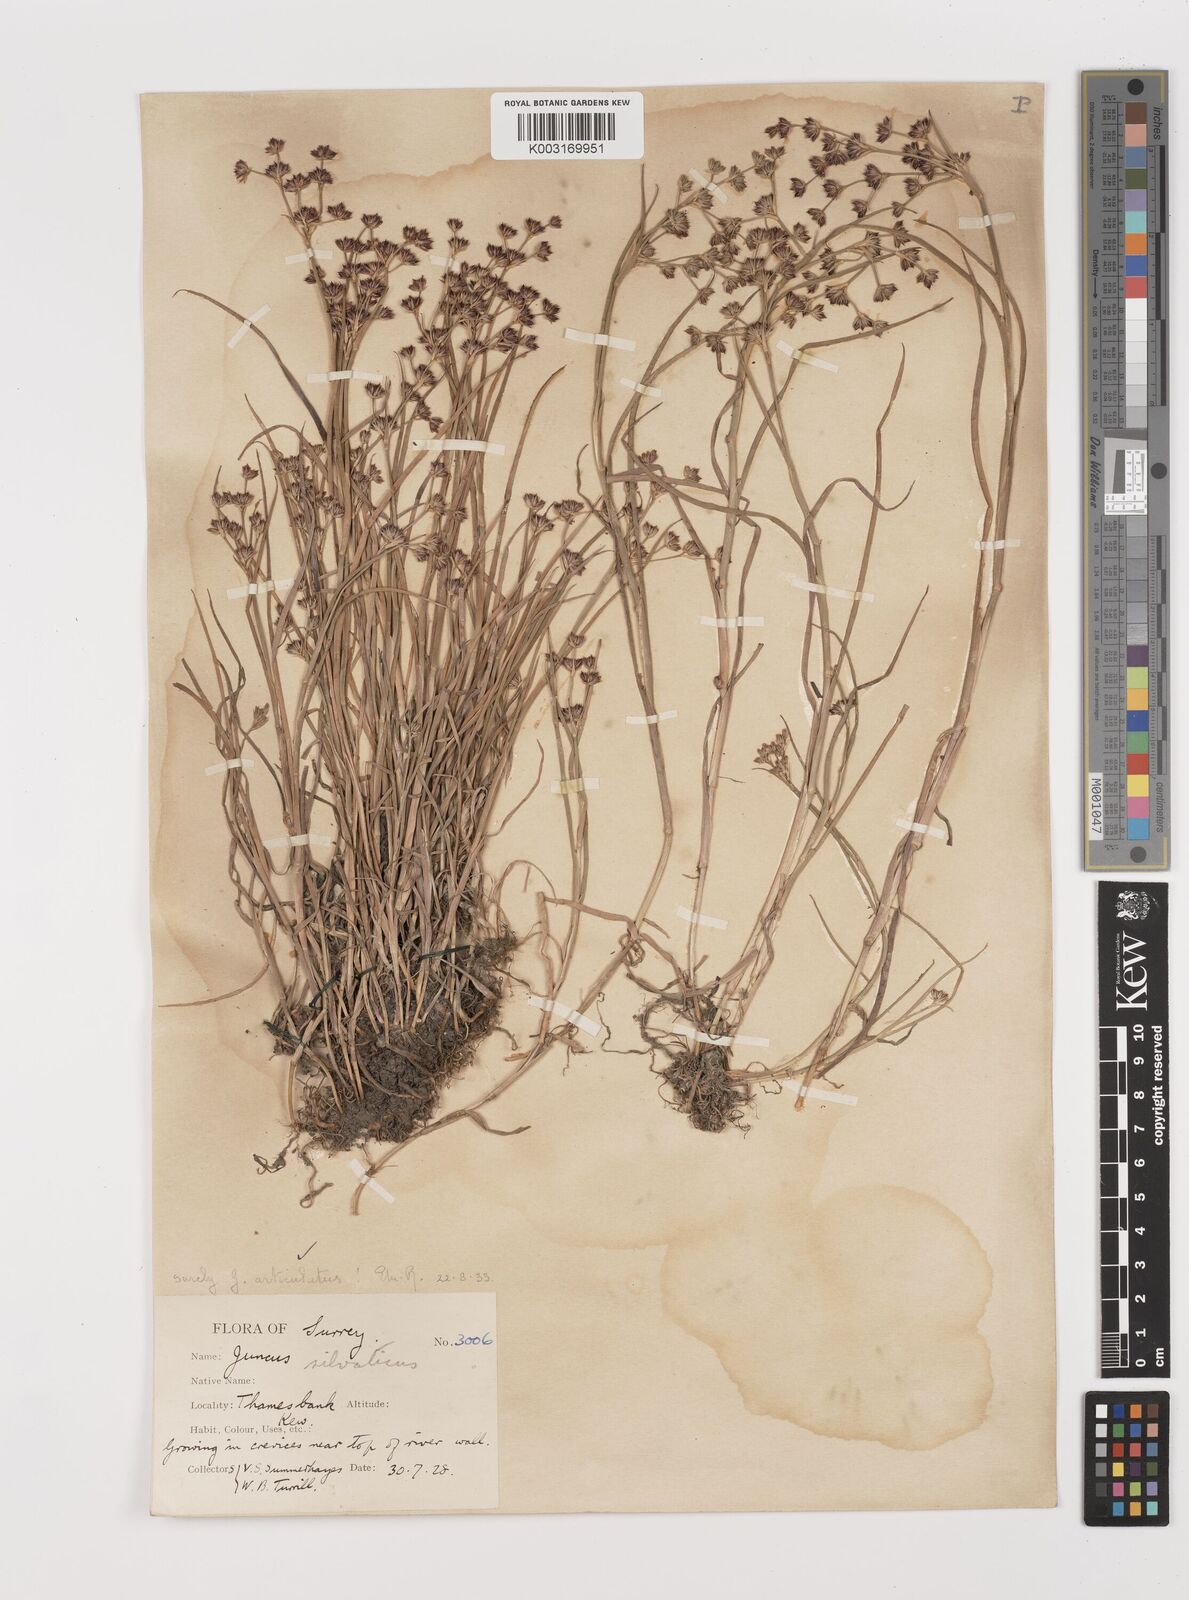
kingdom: Plantae
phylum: Tracheophyta
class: Liliopsida
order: Poales
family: Juncaceae
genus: Juncus
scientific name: Juncus articulatus
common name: Jointed rush
